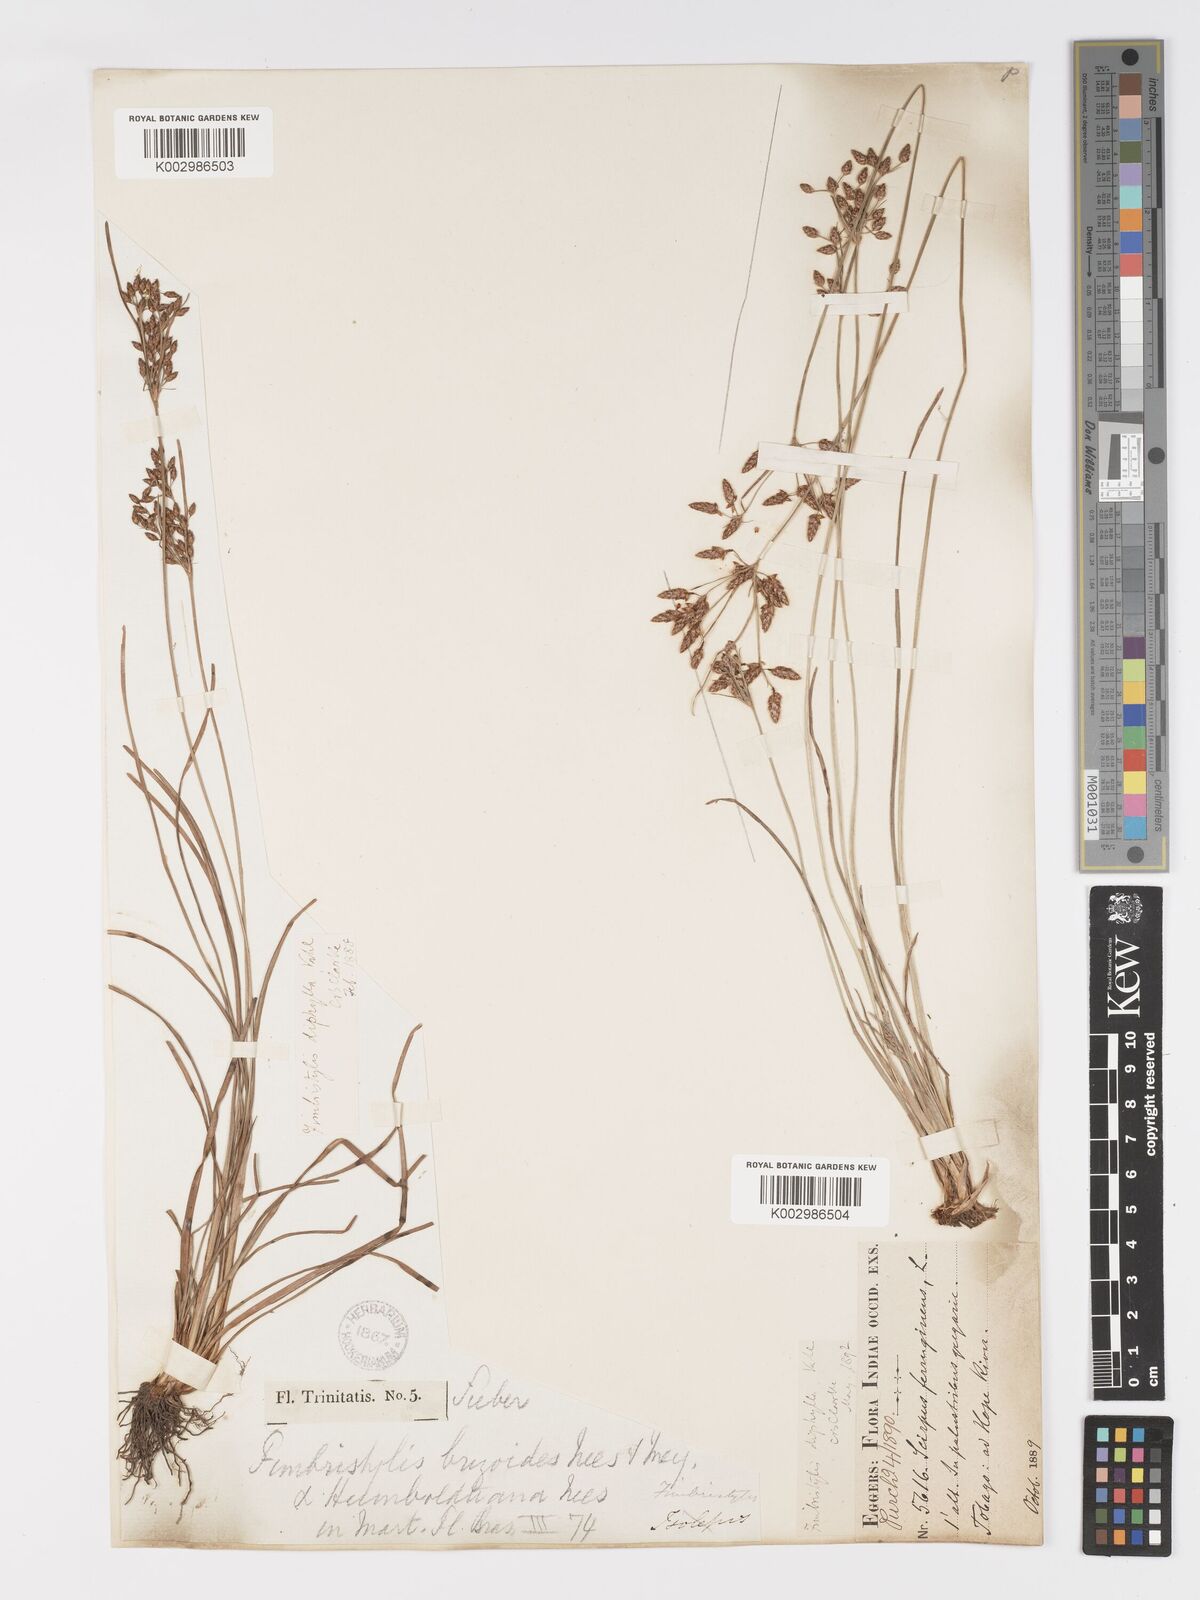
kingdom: Plantae
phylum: Tracheophyta
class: Liliopsida
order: Poales
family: Cyperaceae
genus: Fimbristylis
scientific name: Fimbristylis dichotoma
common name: Forked fimbry
